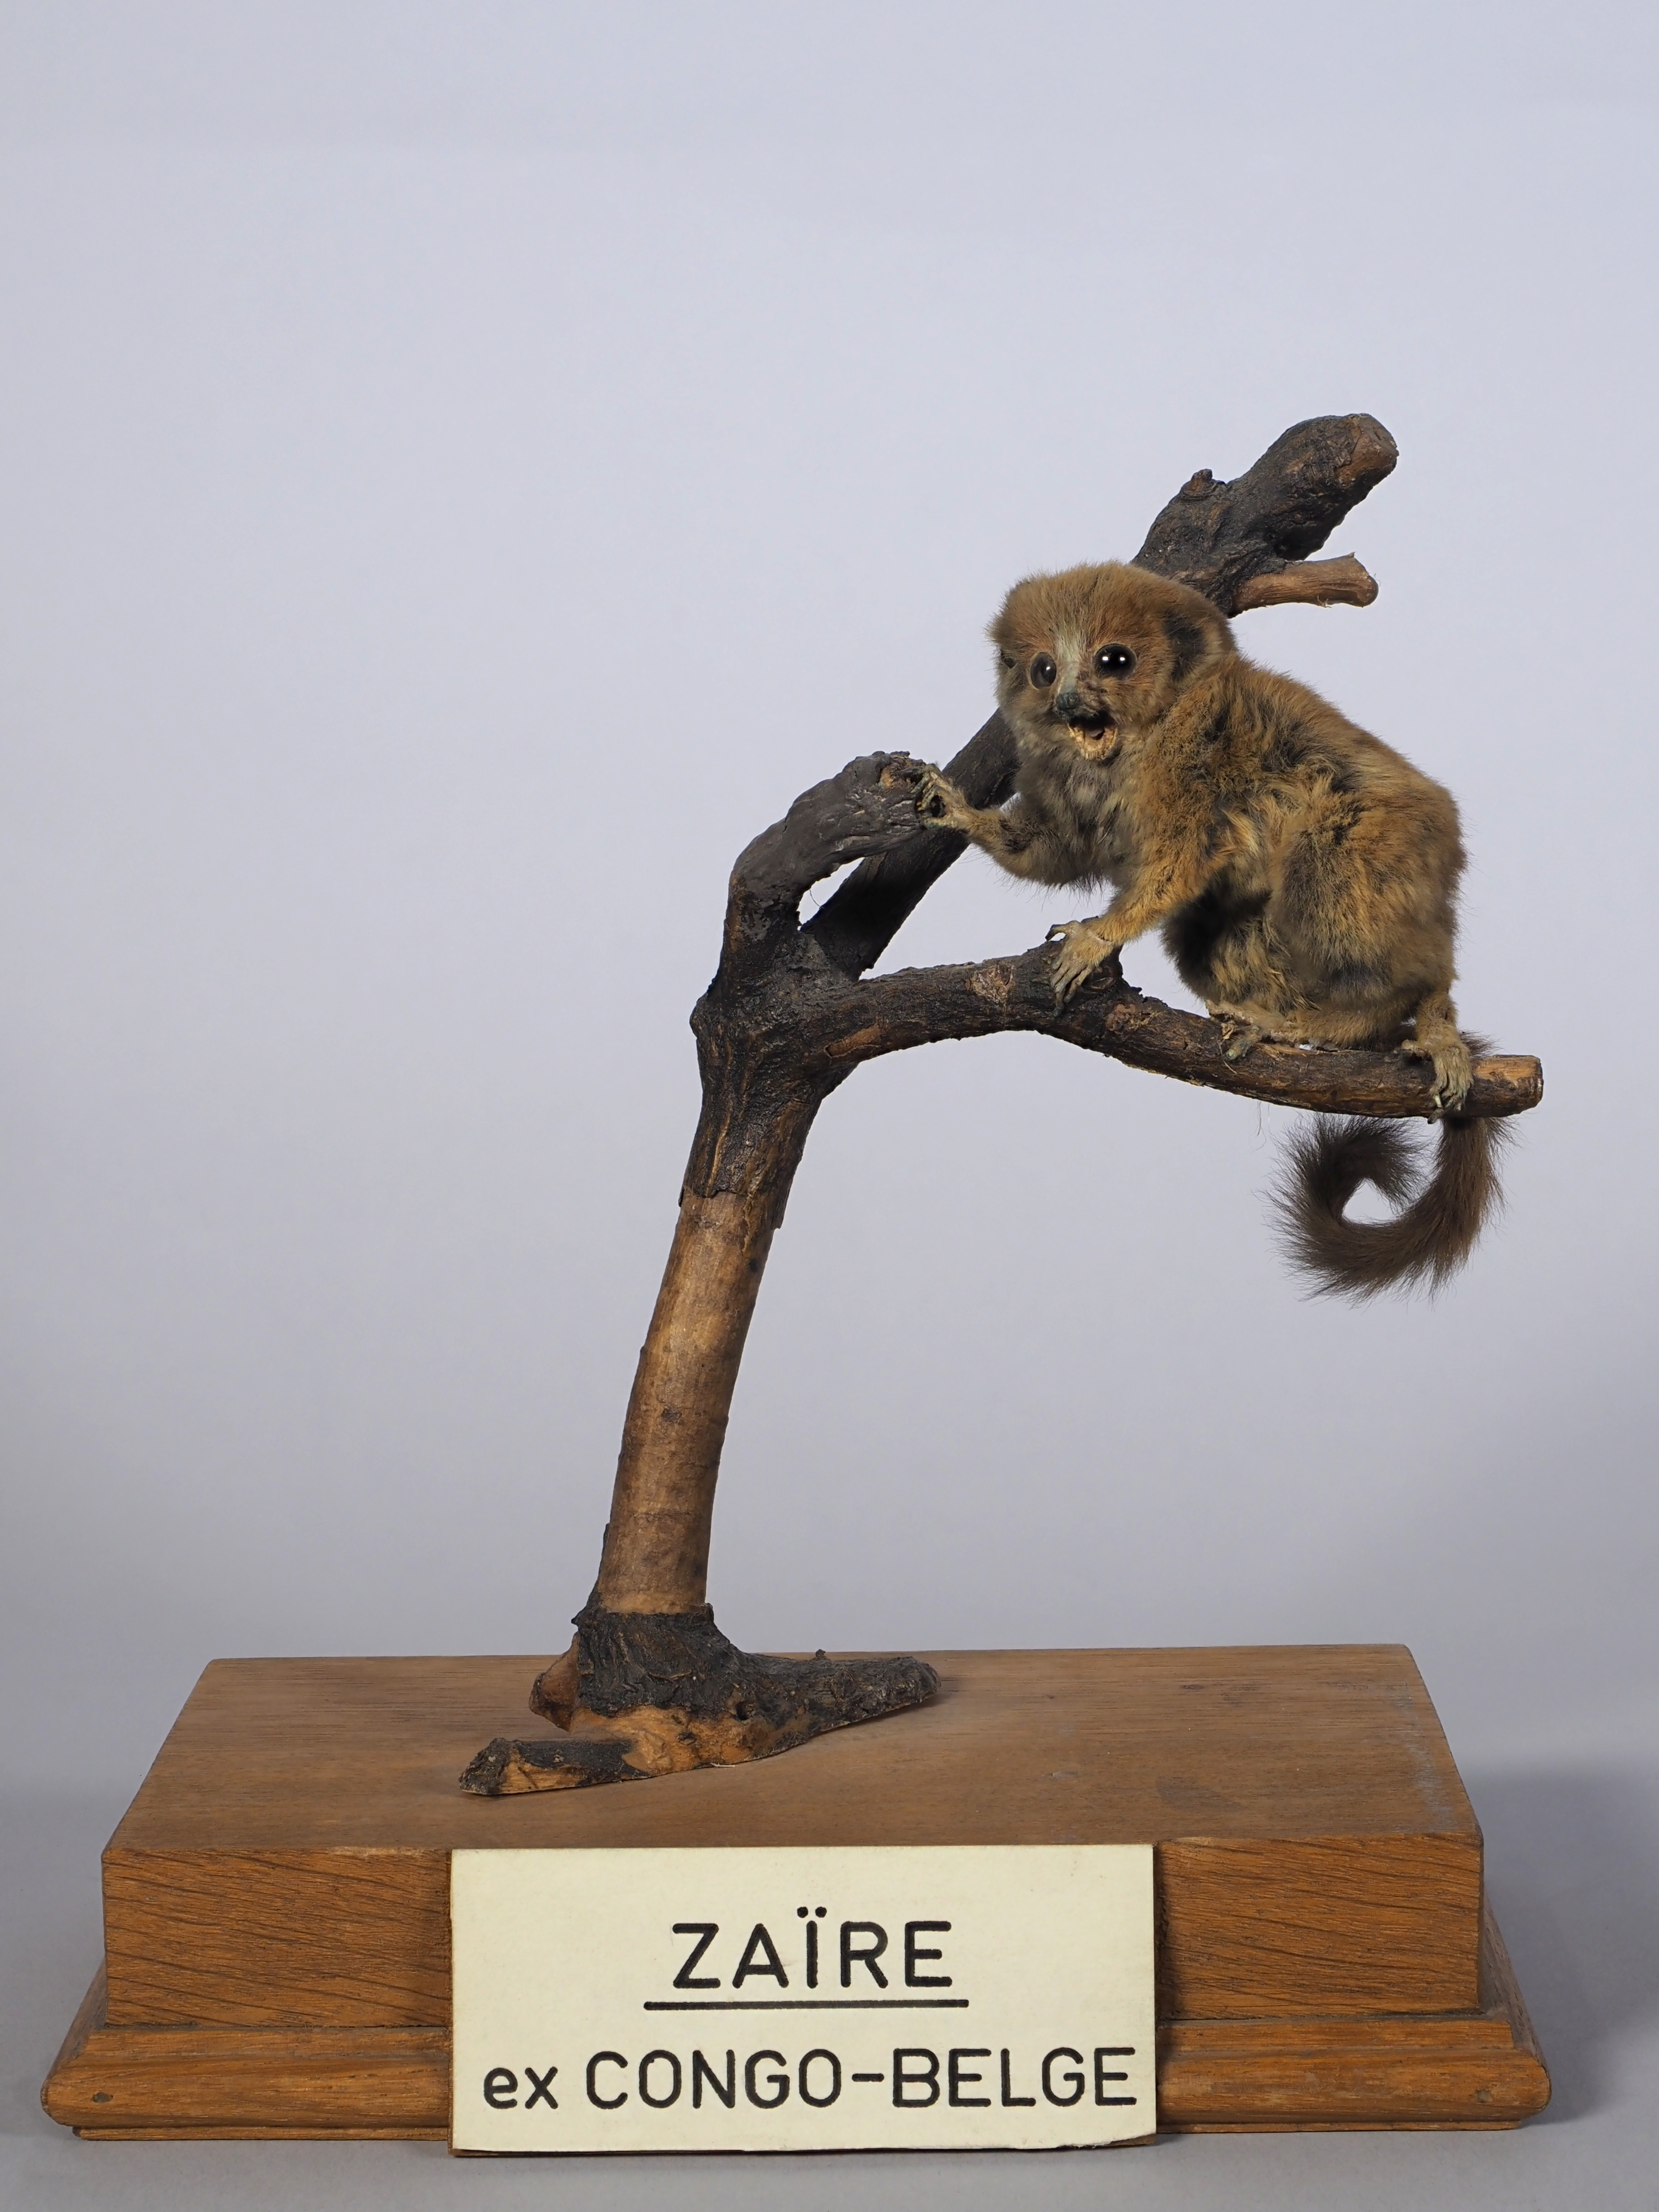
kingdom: Animalia
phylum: Chordata
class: Mammalia
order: Primates
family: Galagidae
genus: Galagoides
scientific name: Galagoides demidoff
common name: Demidoff's dwarf galago
